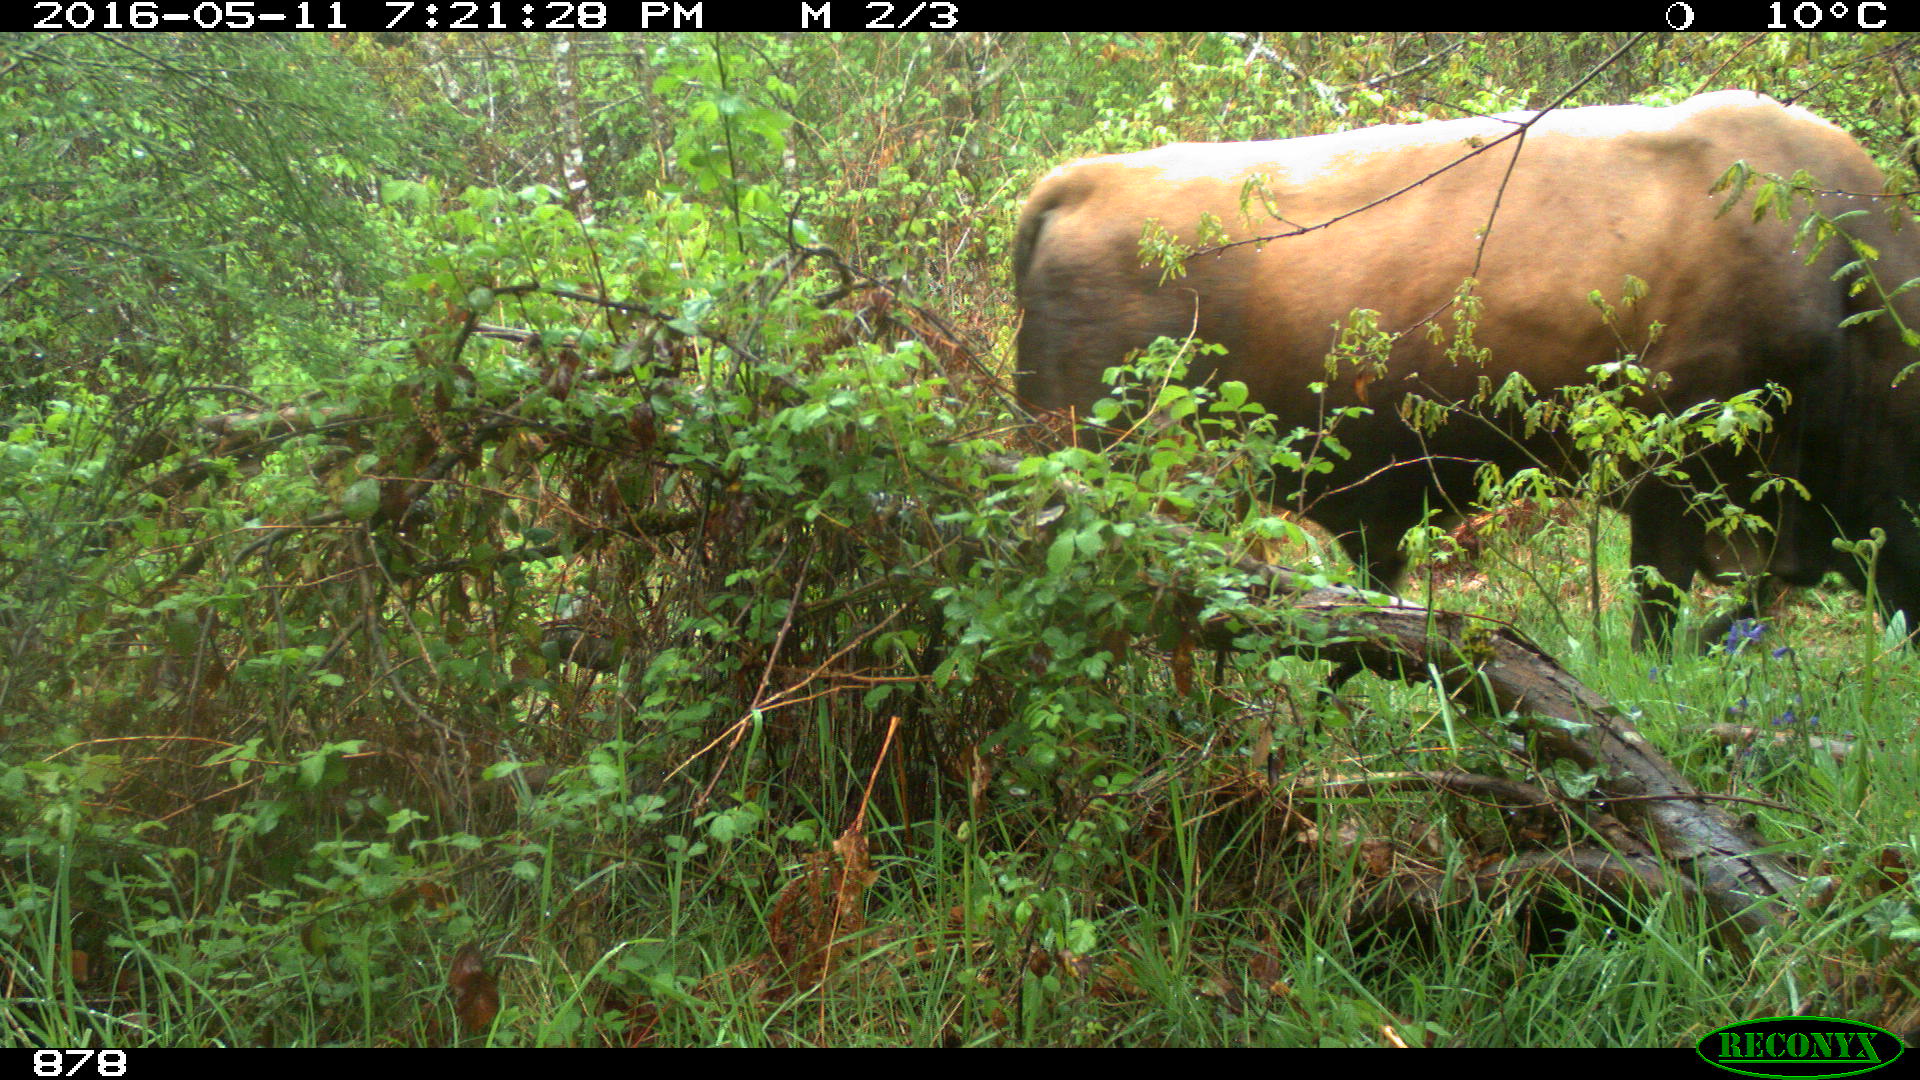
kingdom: Animalia
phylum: Chordata
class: Mammalia
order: Artiodactyla
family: Bovidae
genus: Bos
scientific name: Bos taurus
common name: Domesticated cattle
